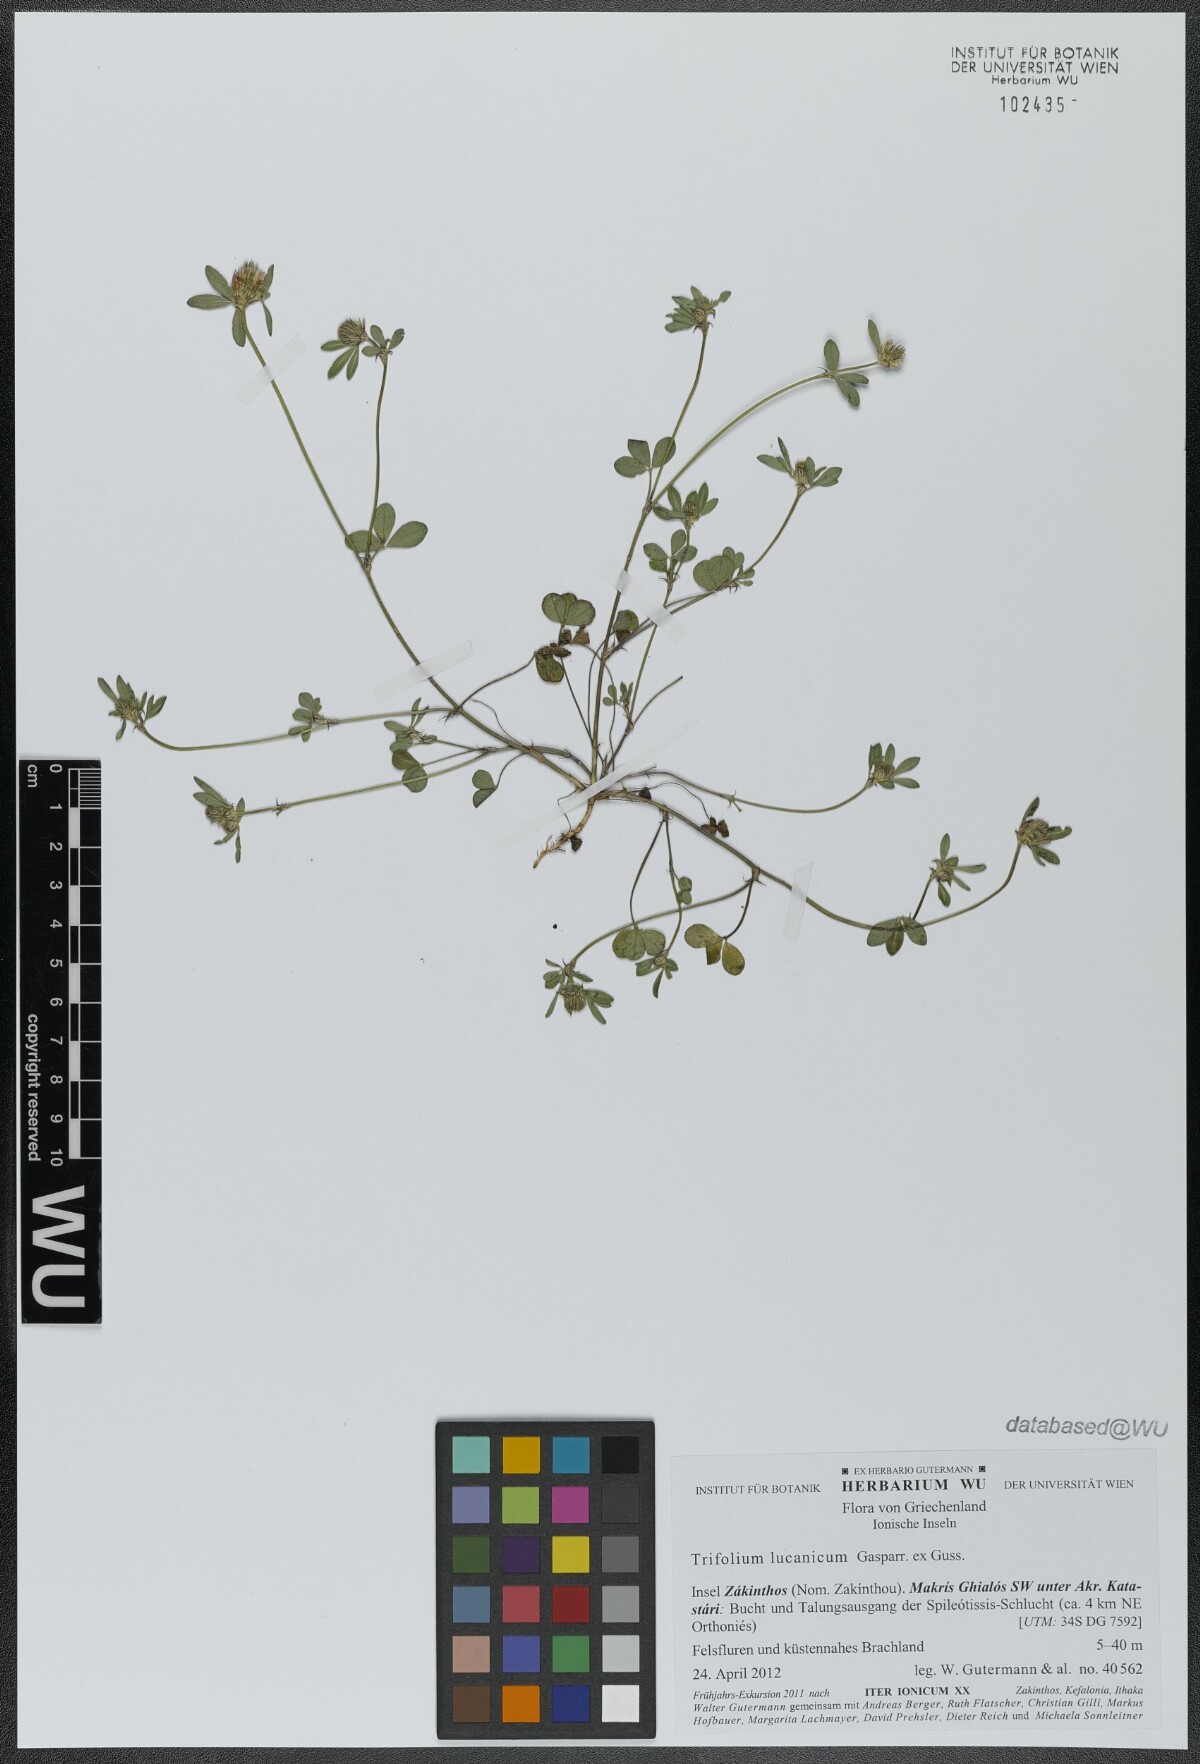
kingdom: Plantae
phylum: Tracheophyta
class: Magnoliopsida
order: Fabales
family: Fabaceae
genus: Trifolium
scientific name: Trifolium lucanicum
